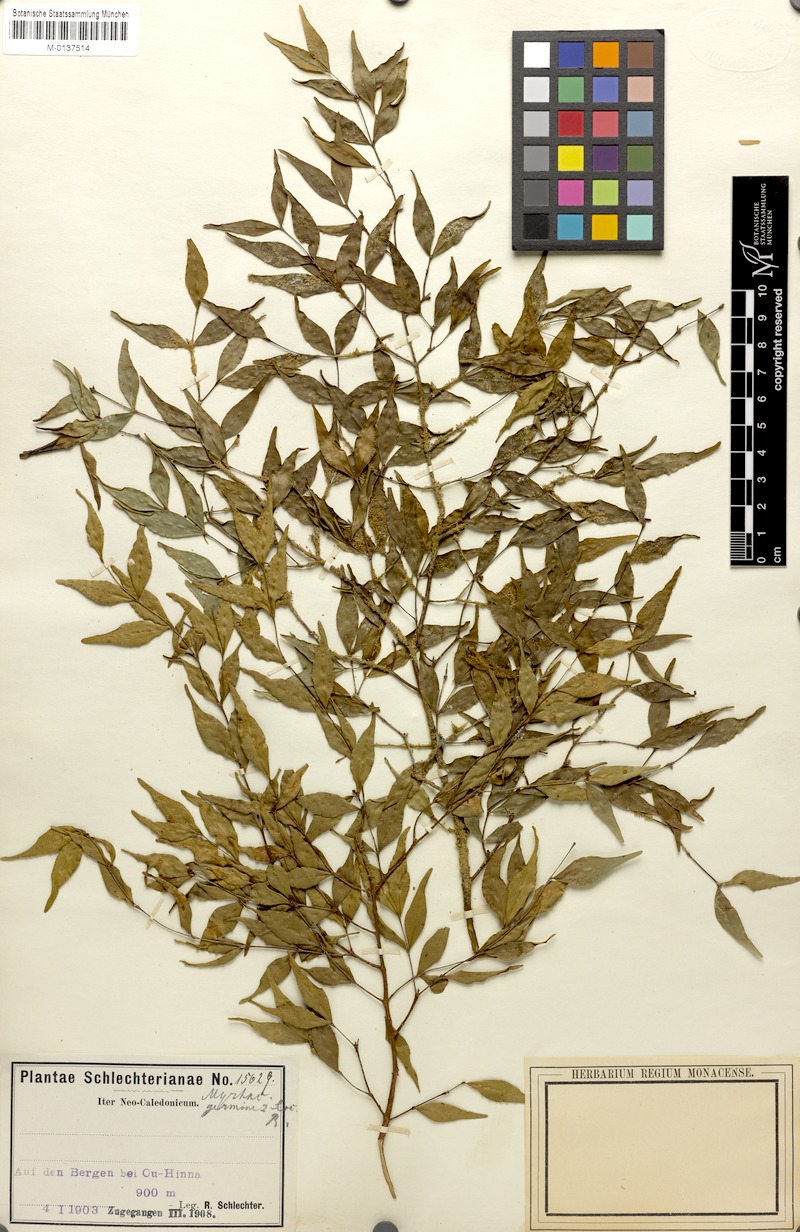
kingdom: Plantae
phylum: Tracheophyta
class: Magnoliopsida
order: Myrtales
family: Myrtaceae
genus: Eugenia
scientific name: Eugenia sarasinii
